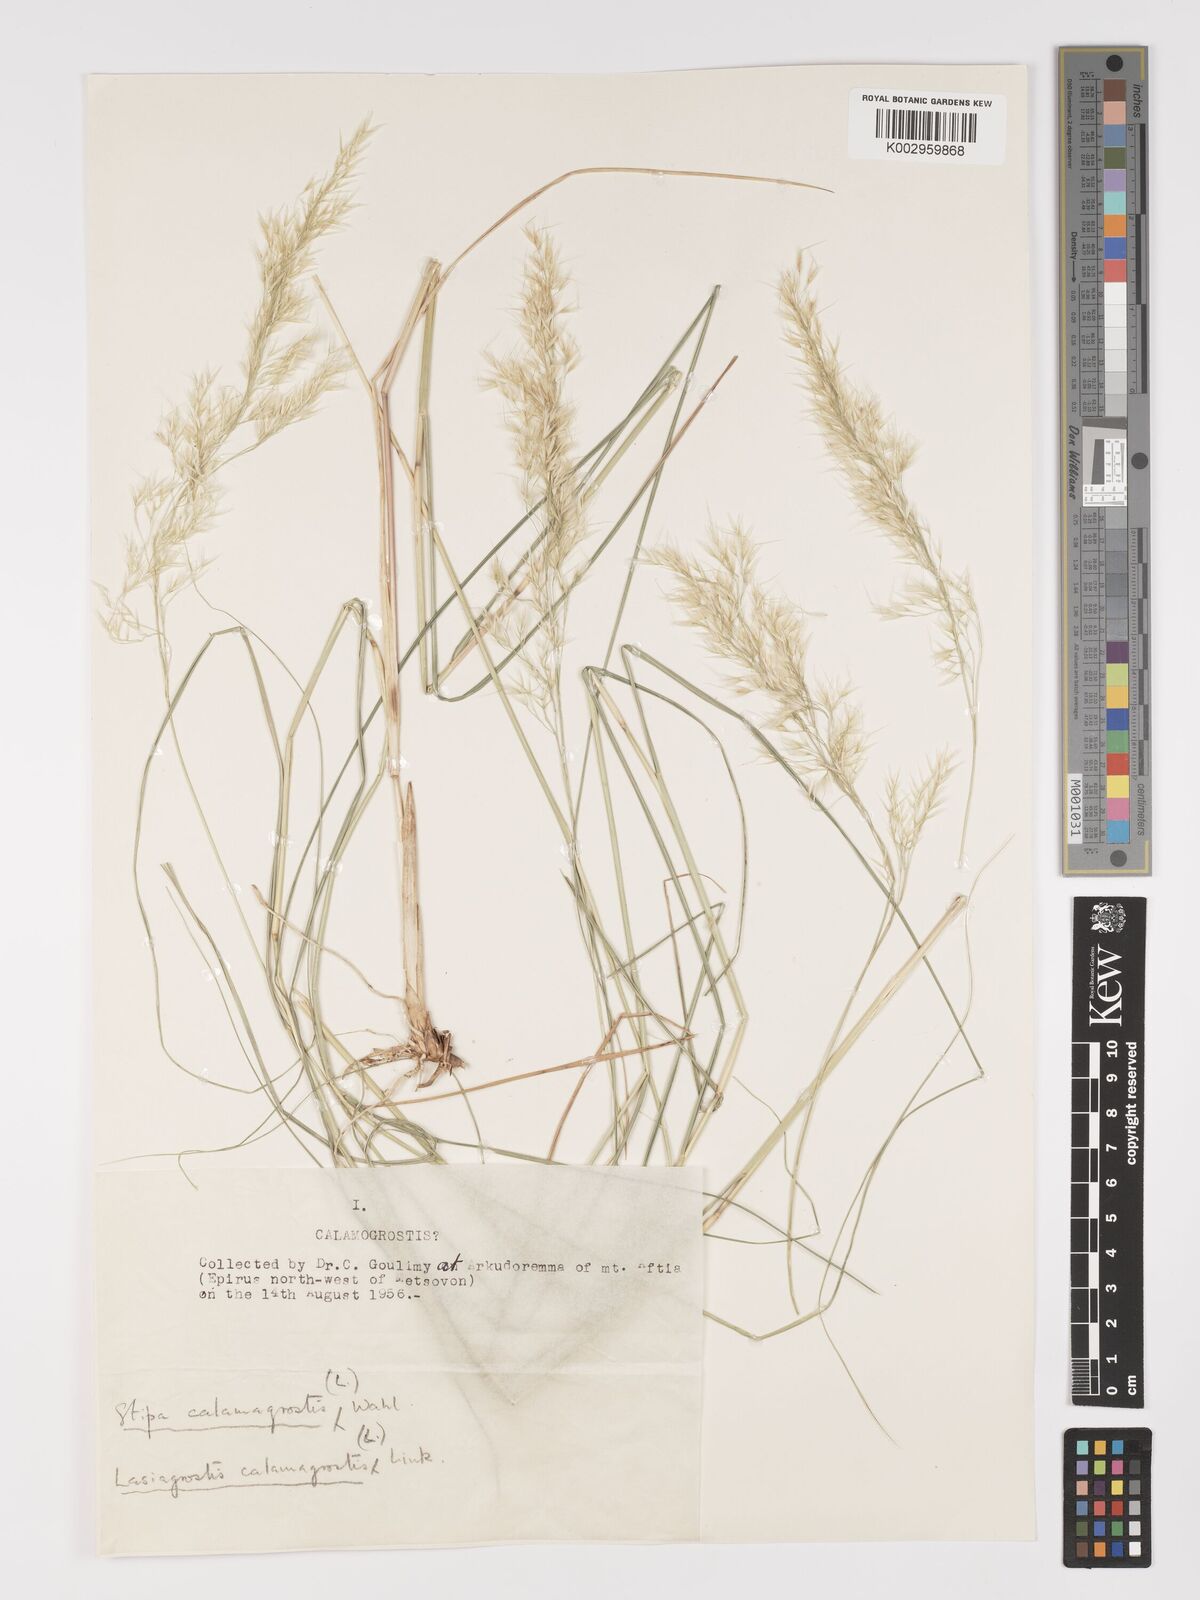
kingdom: Plantae
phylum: Tracheophyta
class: Liliopsida
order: Poales
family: Poaceae
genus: Achnatherum
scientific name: Achnatherum calamagrostis
